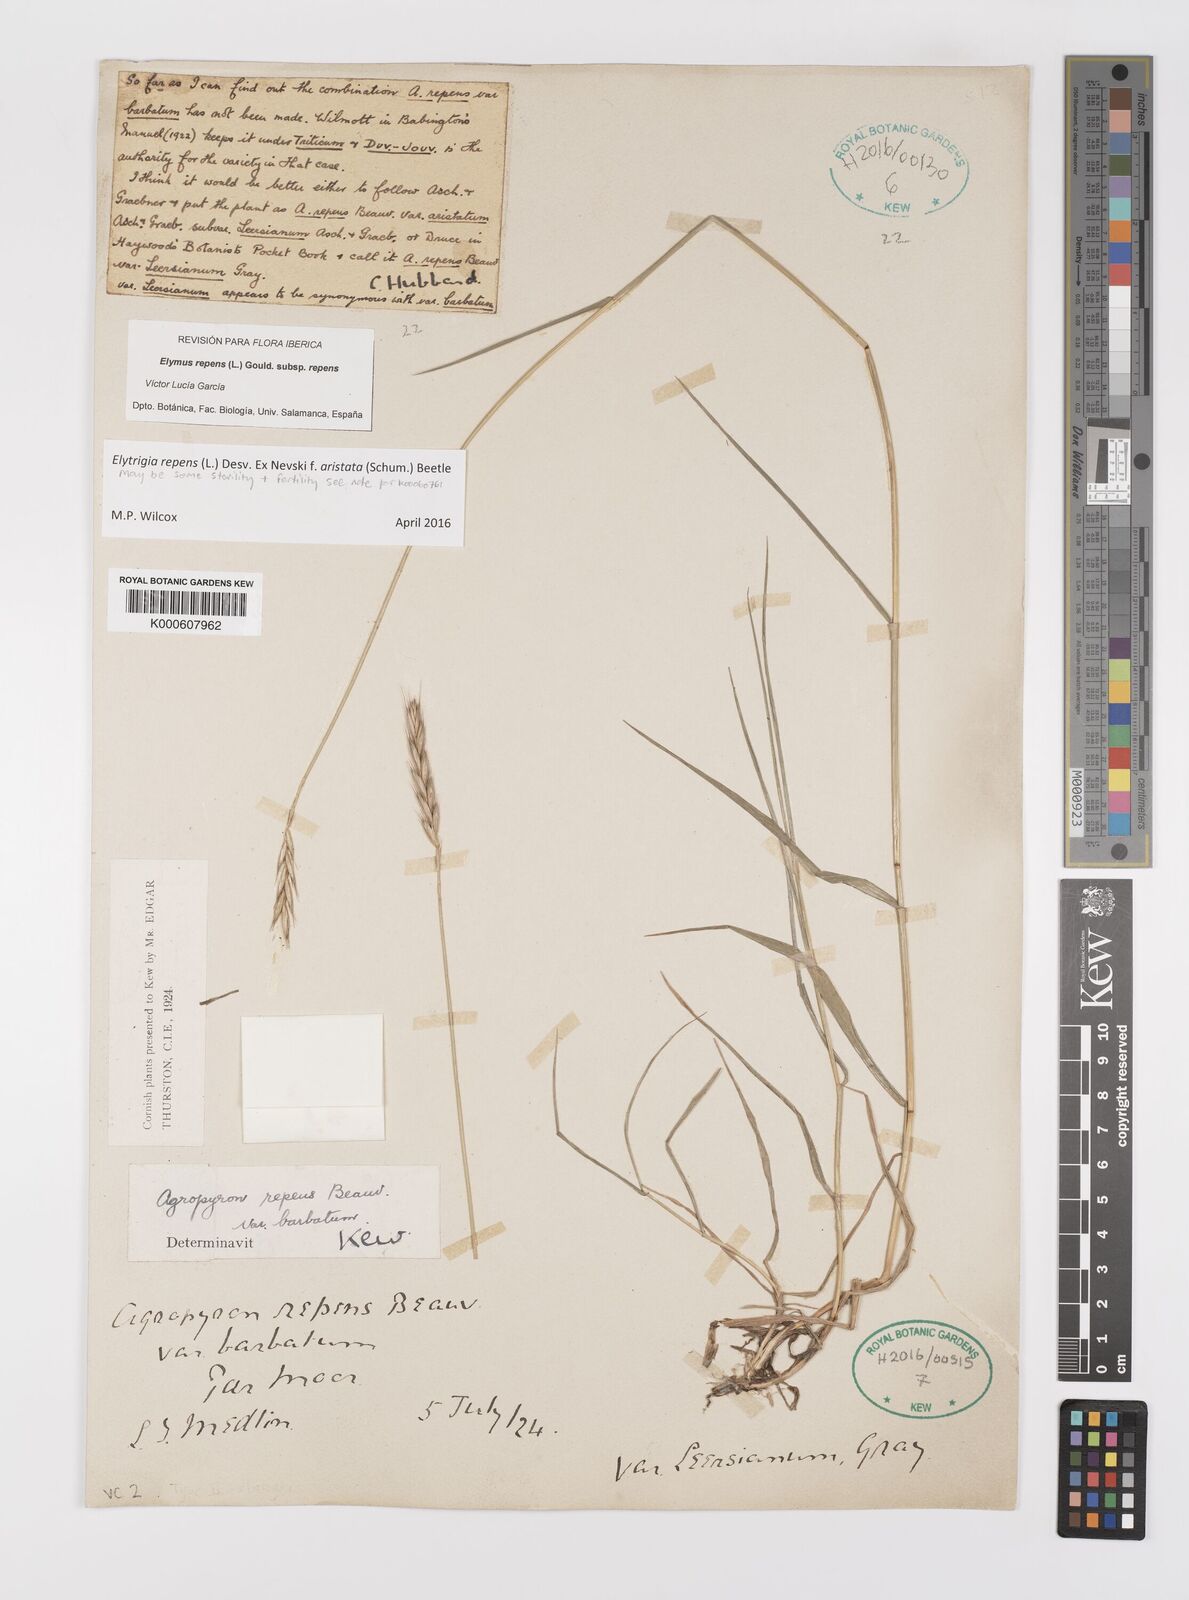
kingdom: Plantae
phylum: Tracheophyta
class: Liliopsida
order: Poales
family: Poaceae
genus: Elymus
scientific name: Elymus repens
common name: Quackgrass
